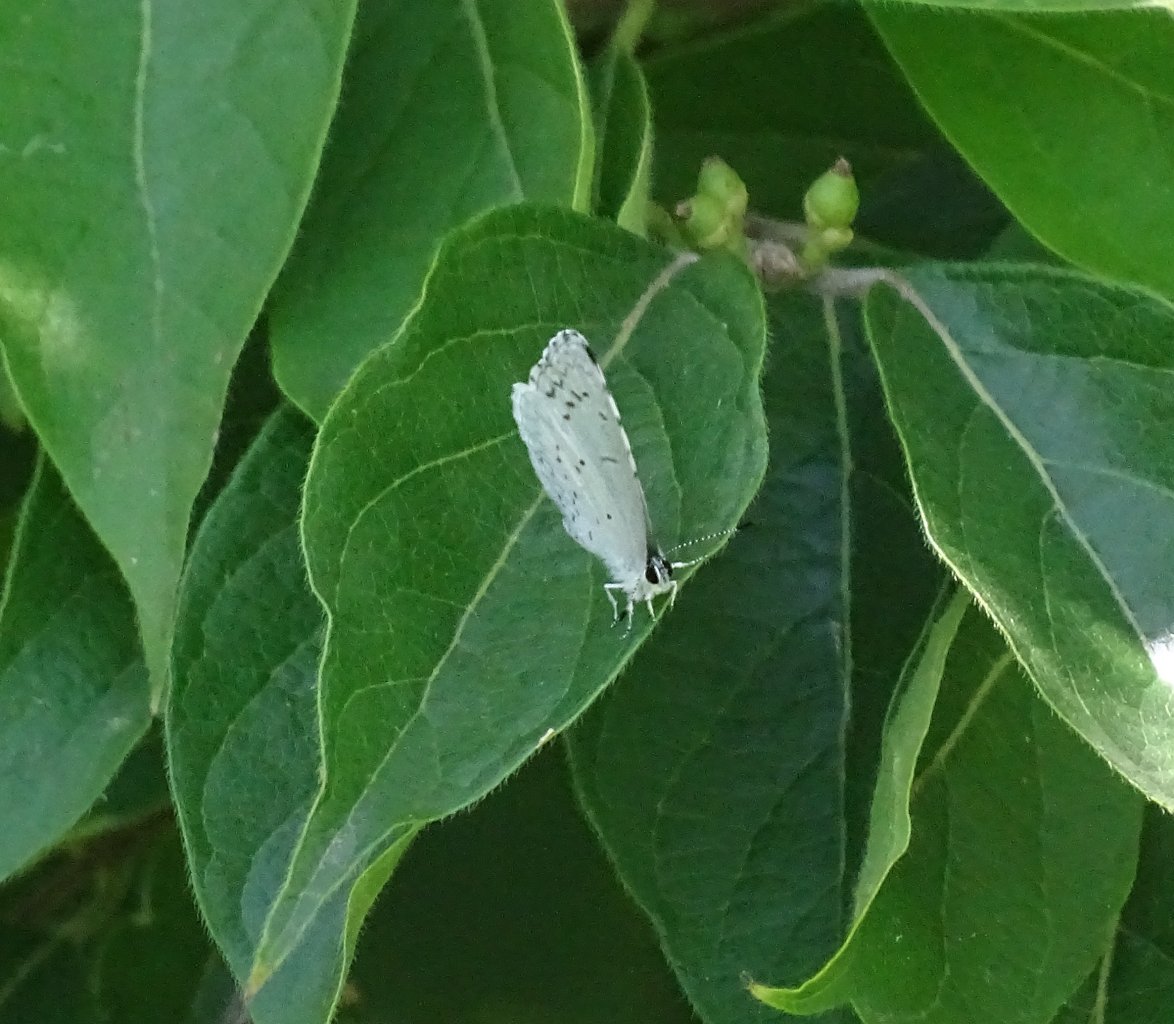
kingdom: Animalia
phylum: Arthropoda
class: Insecta
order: Lepidoptera
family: Lycaenidae
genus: Cyaniris
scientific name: Cyaniris neglecta
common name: Summer Azure
